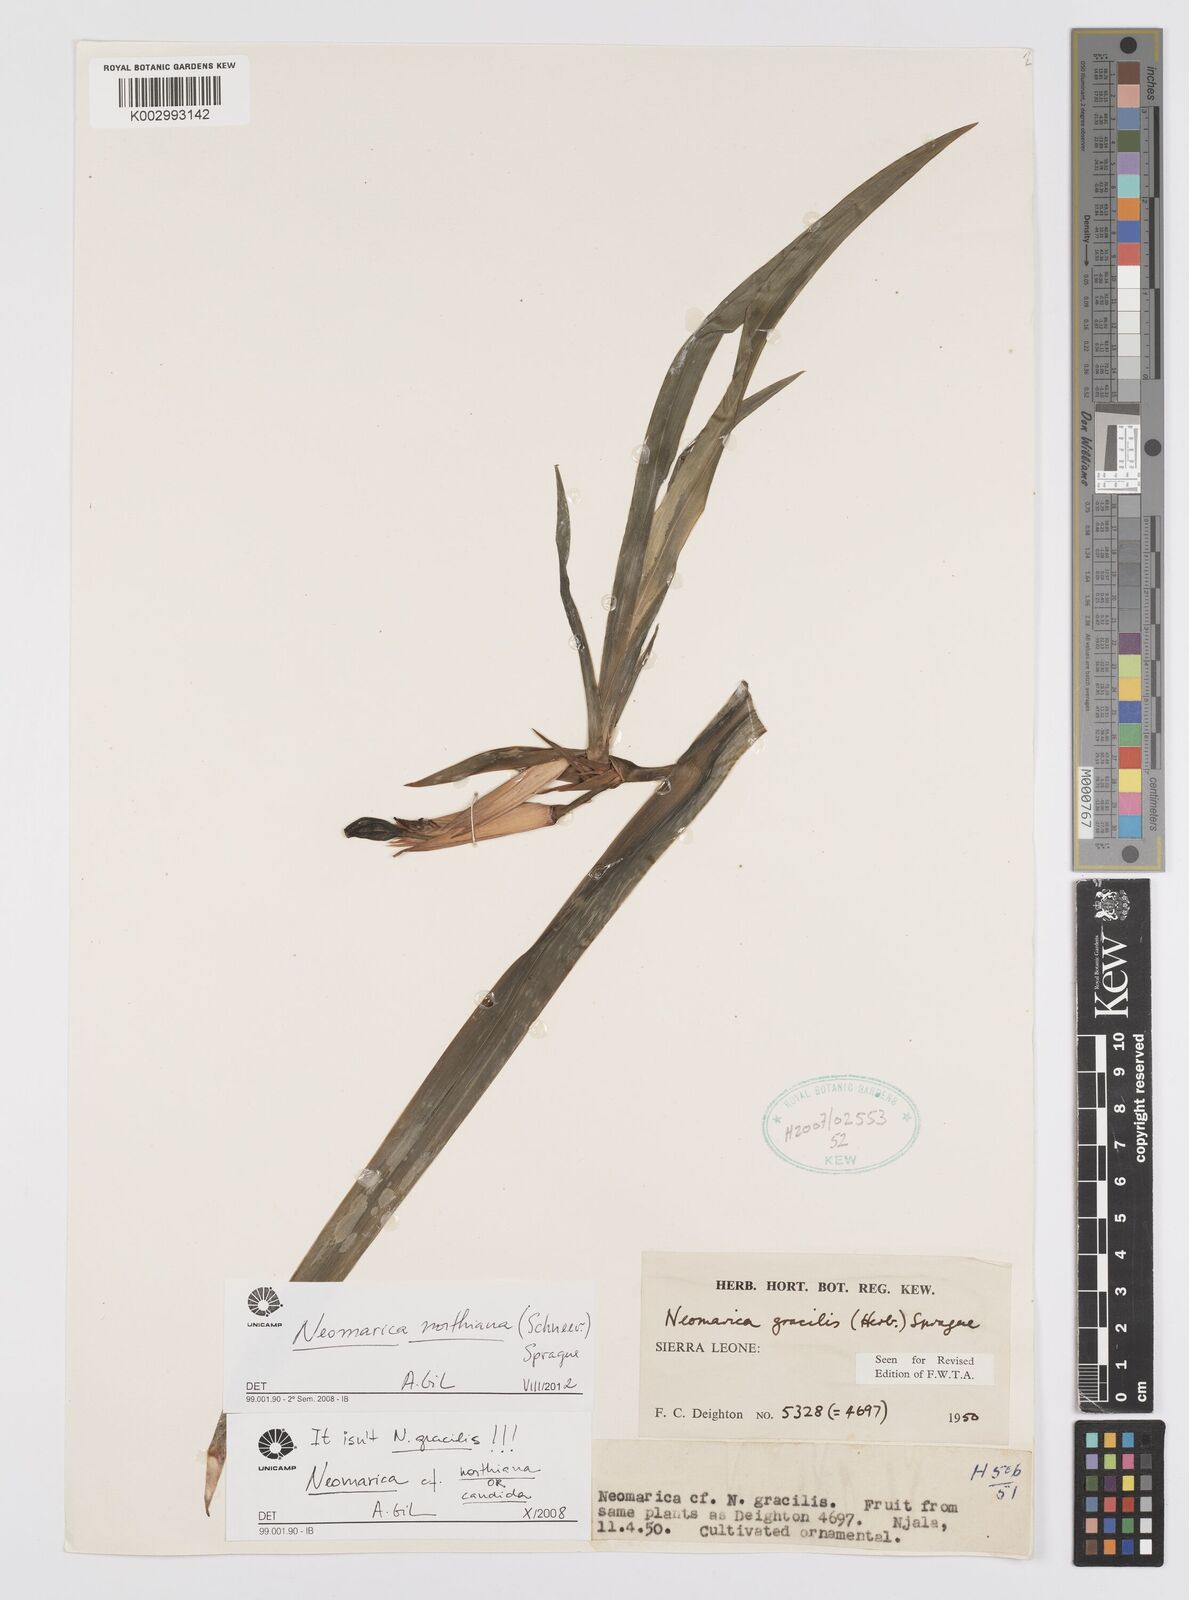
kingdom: Plantae
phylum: Tracheophyta
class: Liliopsida
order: Asparagales
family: Iridaceae
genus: Trimezia
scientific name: Trimezia northiana
